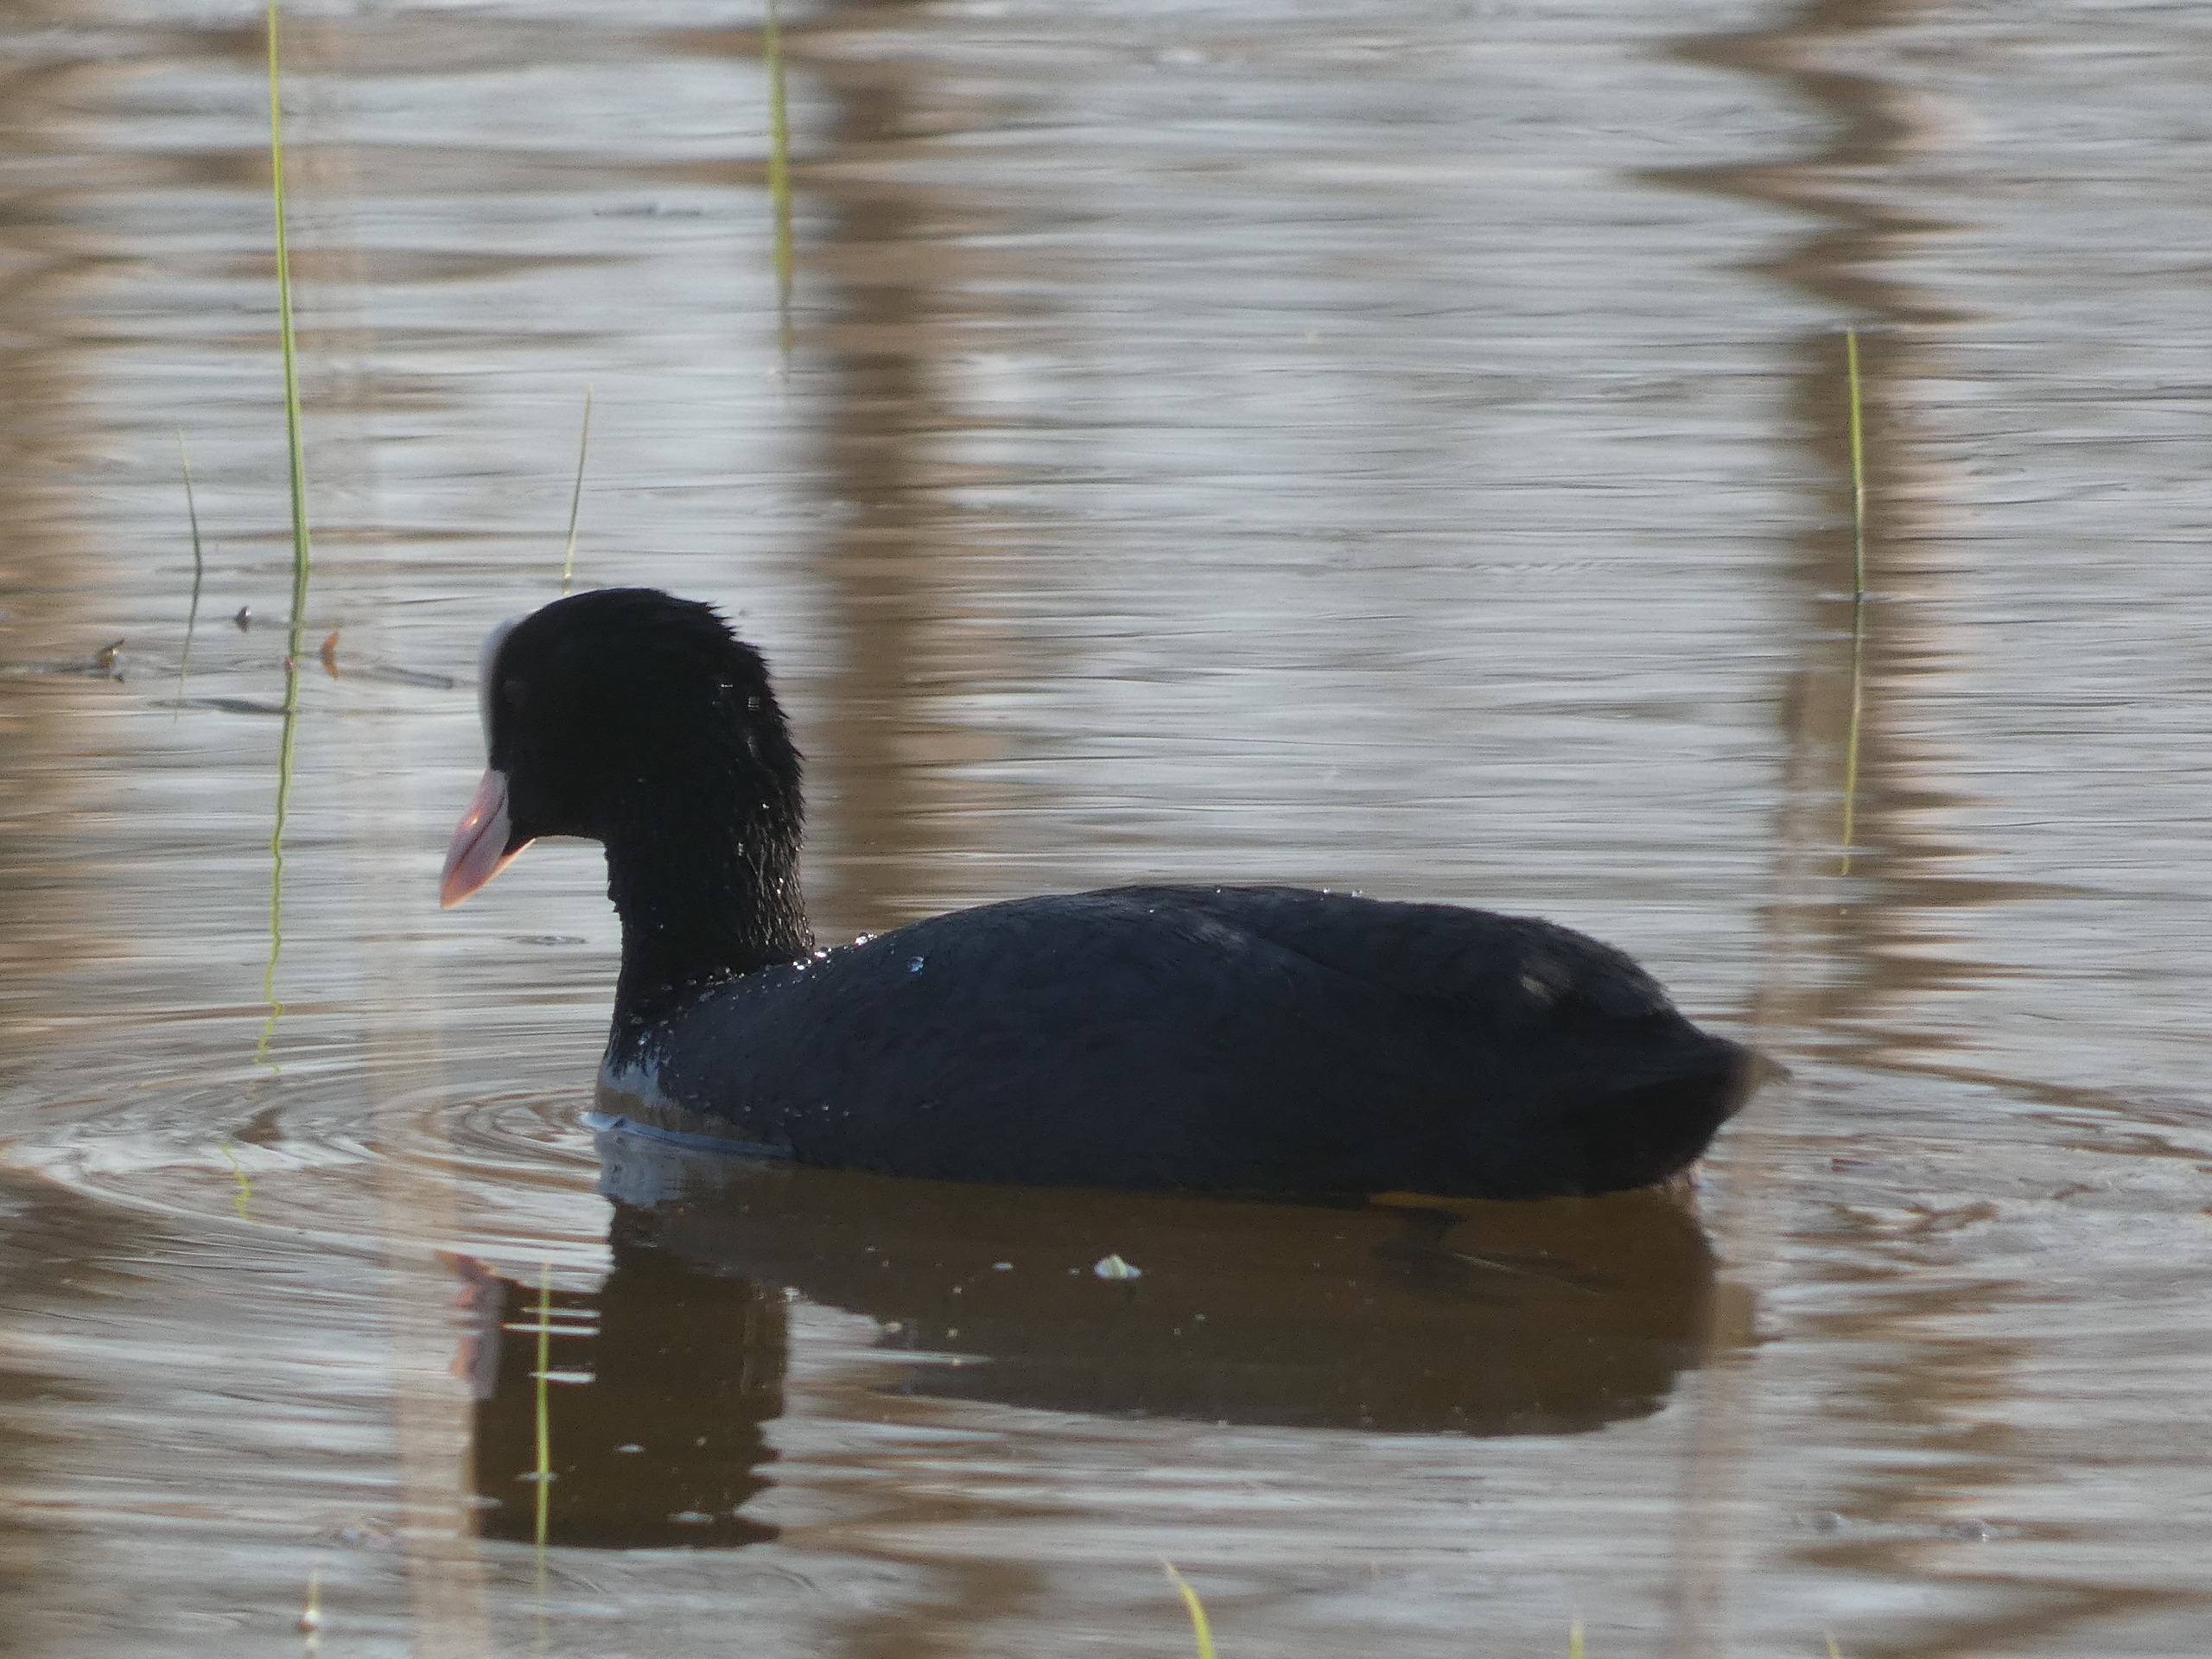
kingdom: Animalia
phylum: Chordata
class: Aves
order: Gruiformes
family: Rallidae
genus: Fulica
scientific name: Fulica atra
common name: Blishøne
